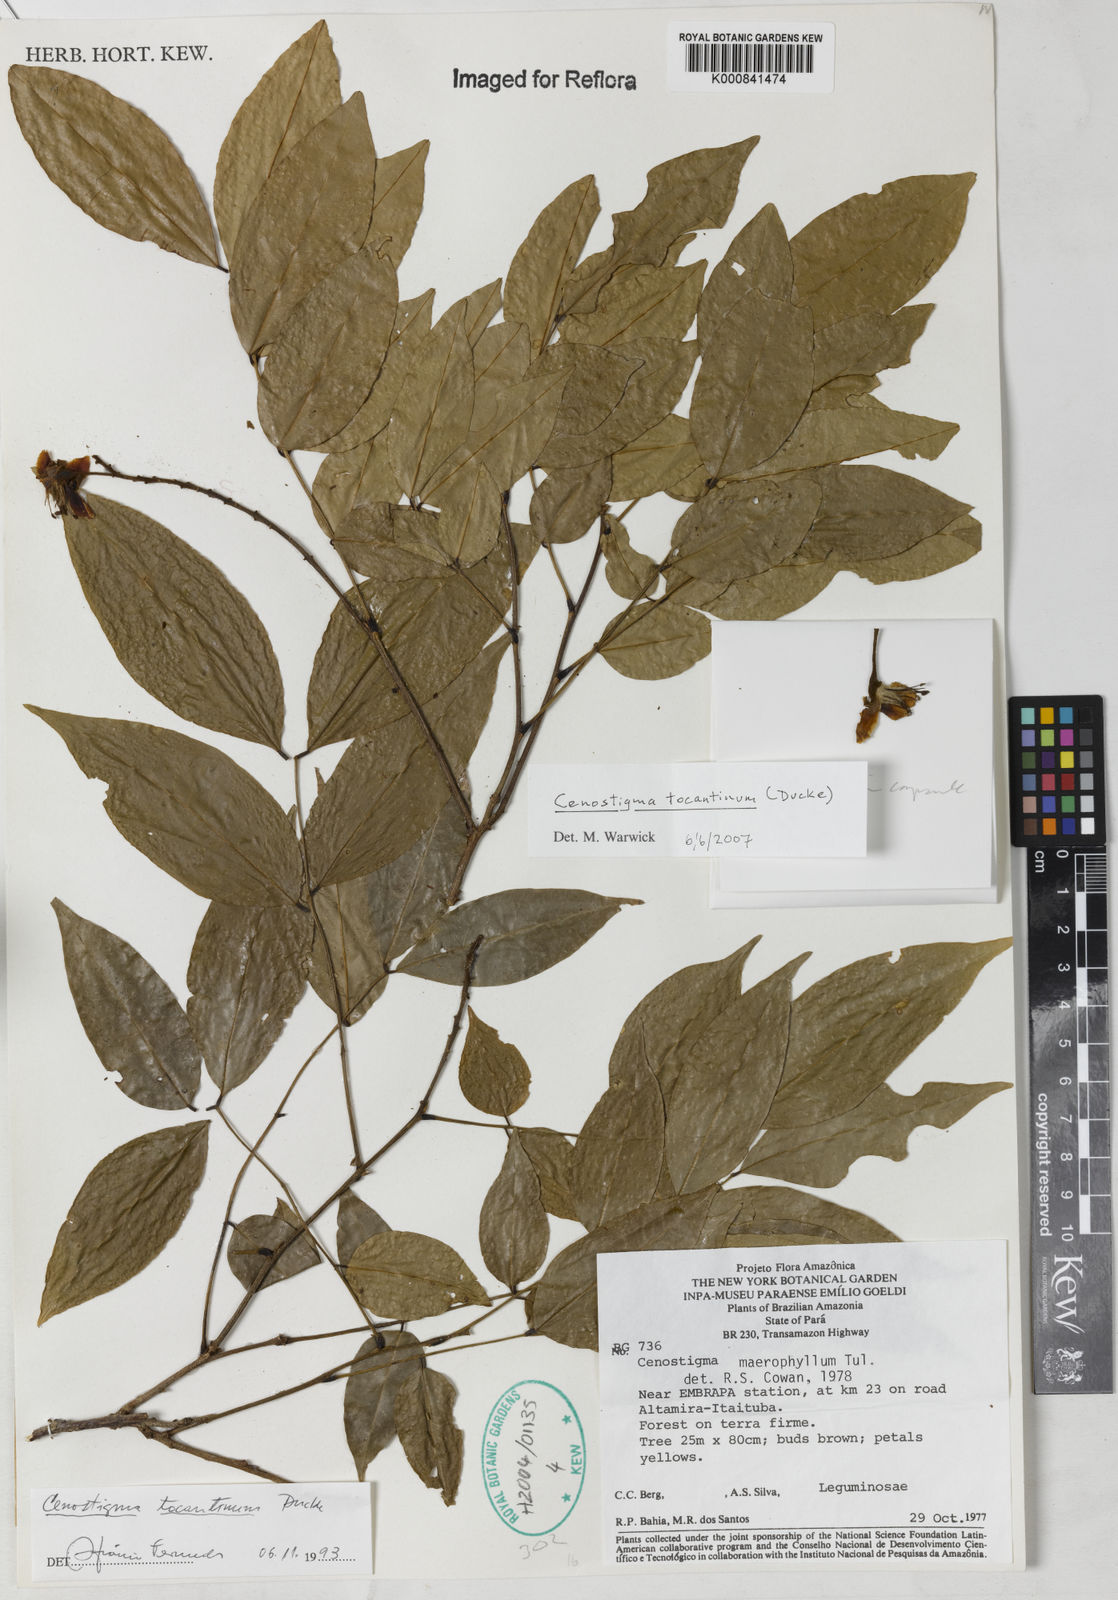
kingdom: Plantae
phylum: Tracheophyta
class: Magnoliopsida
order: Fabales
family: Fabaceae
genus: Cenostigma
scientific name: Cenostigma tocantinum
